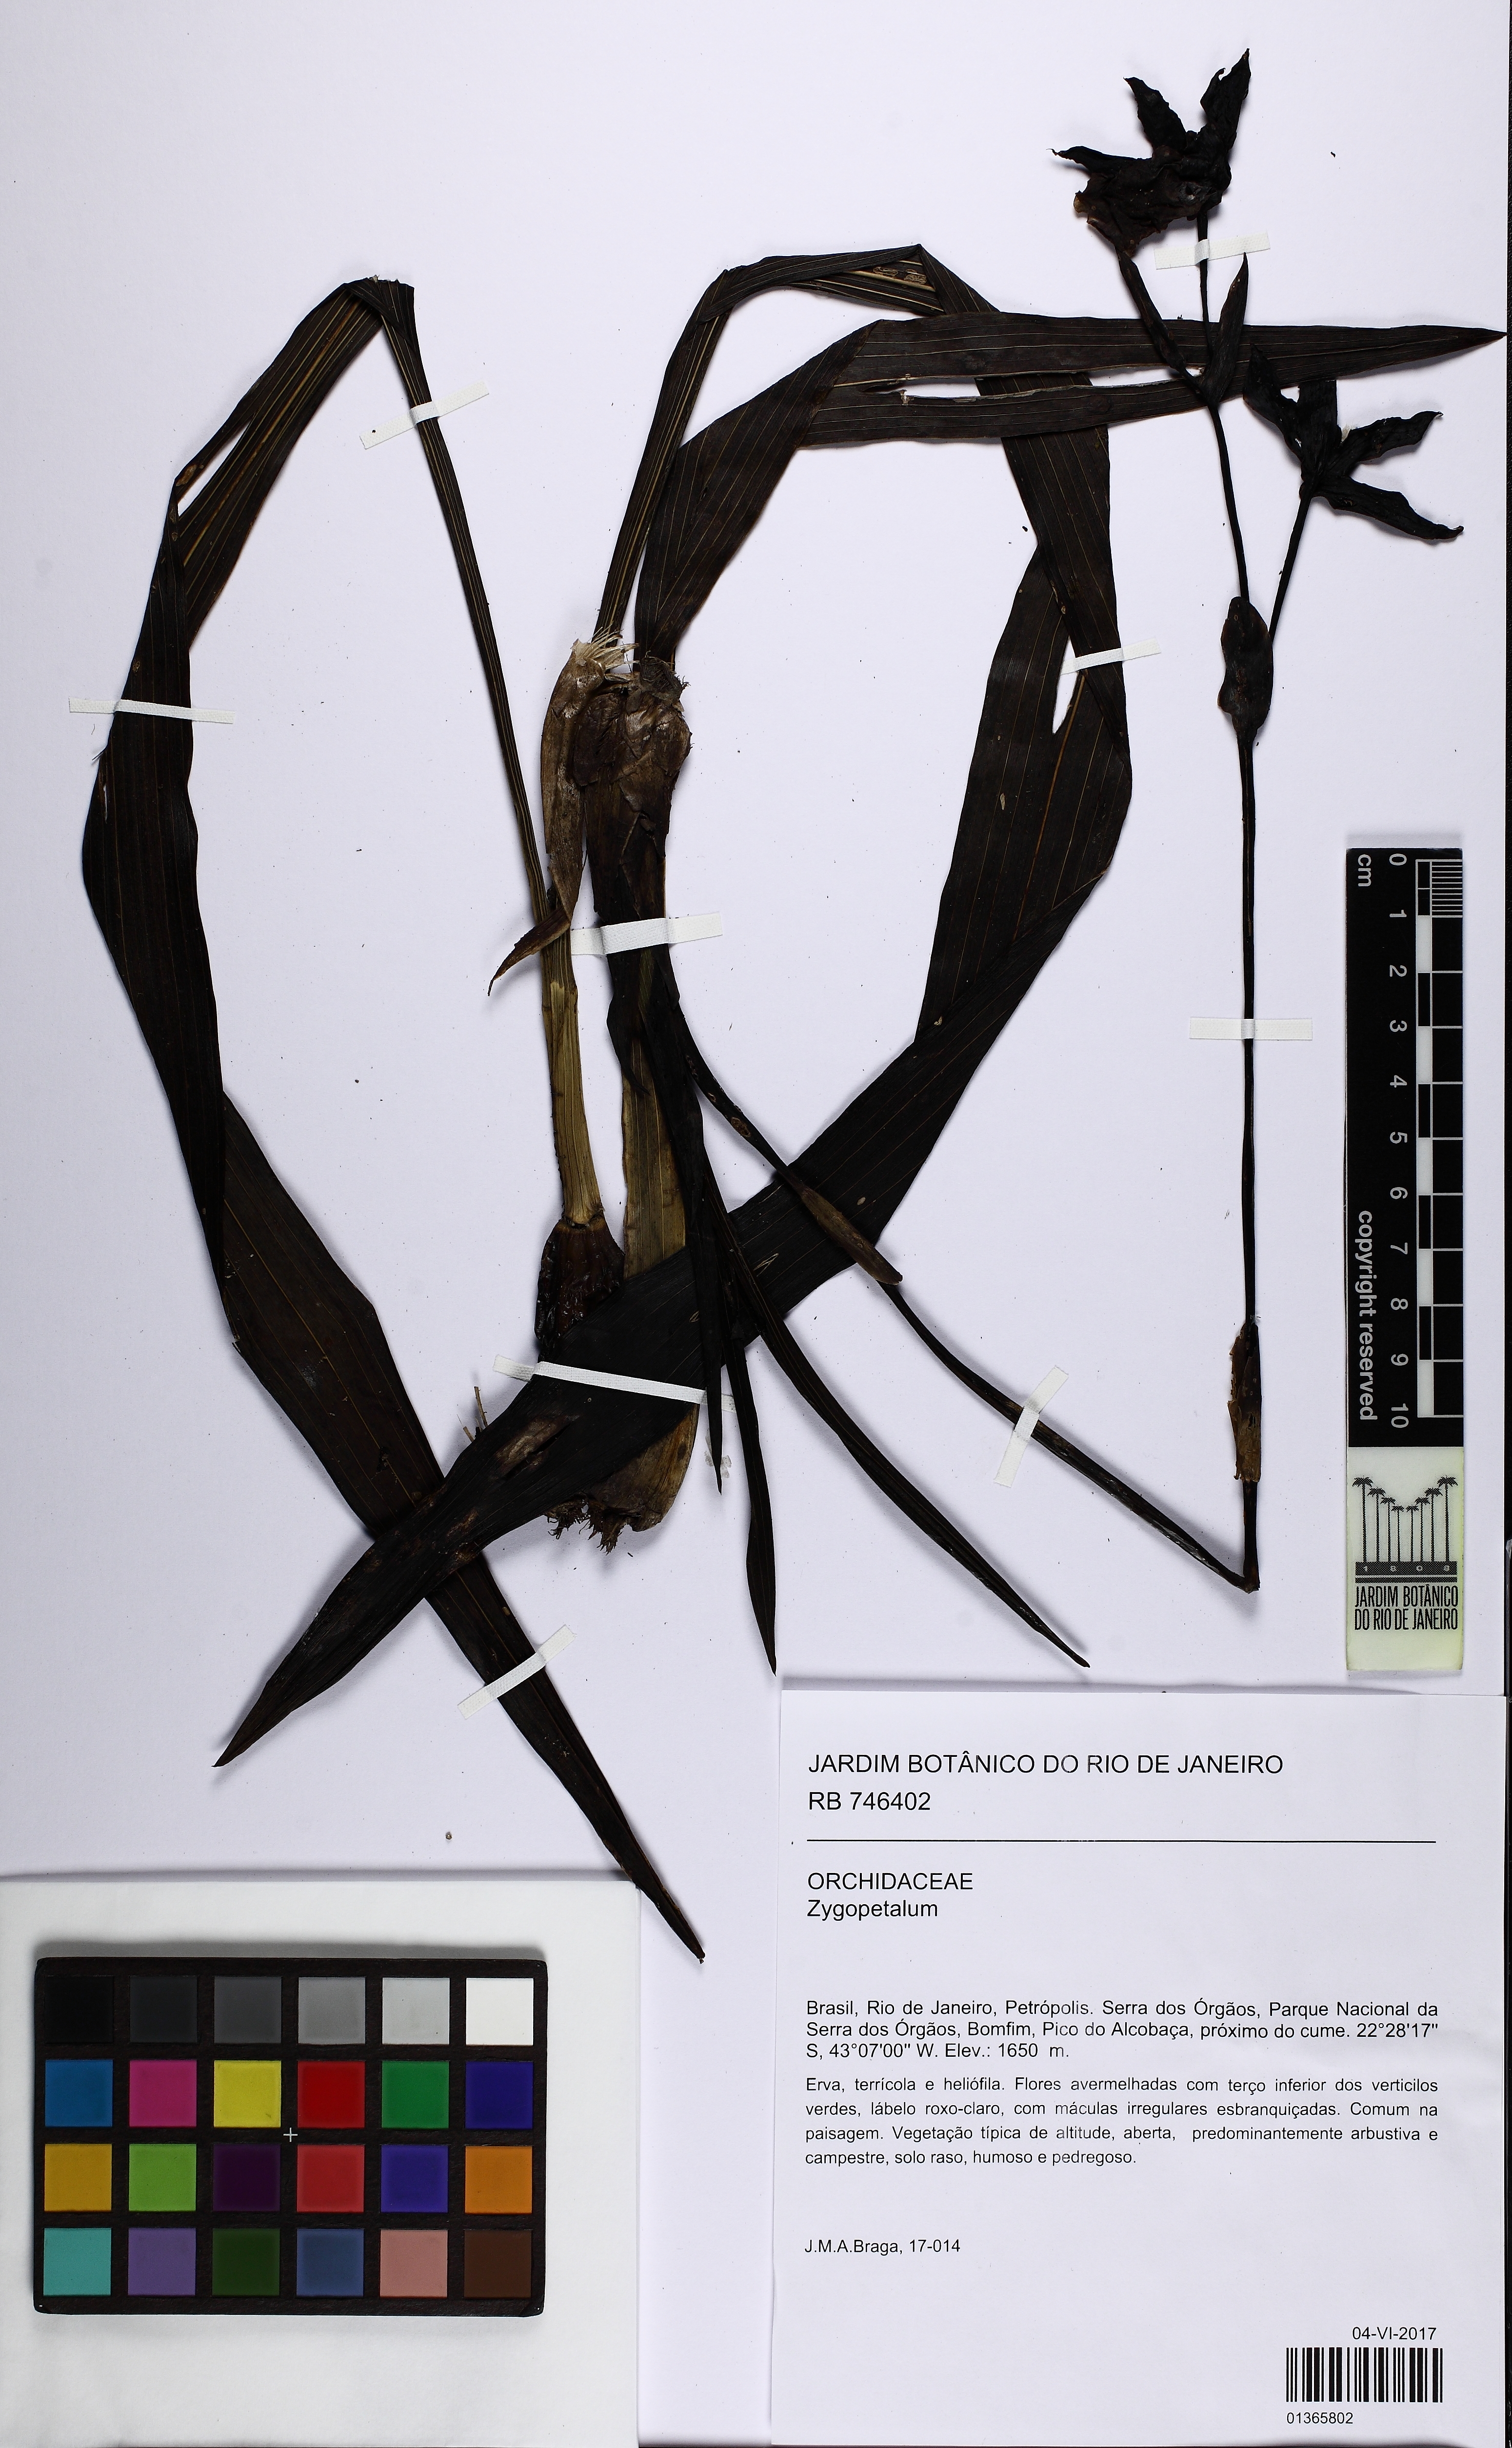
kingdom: Plantae
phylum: Tracheophyta
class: Liliopsida
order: Asparagales
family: Orchidaceae
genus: Zygopetalum
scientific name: Zygopetalum
